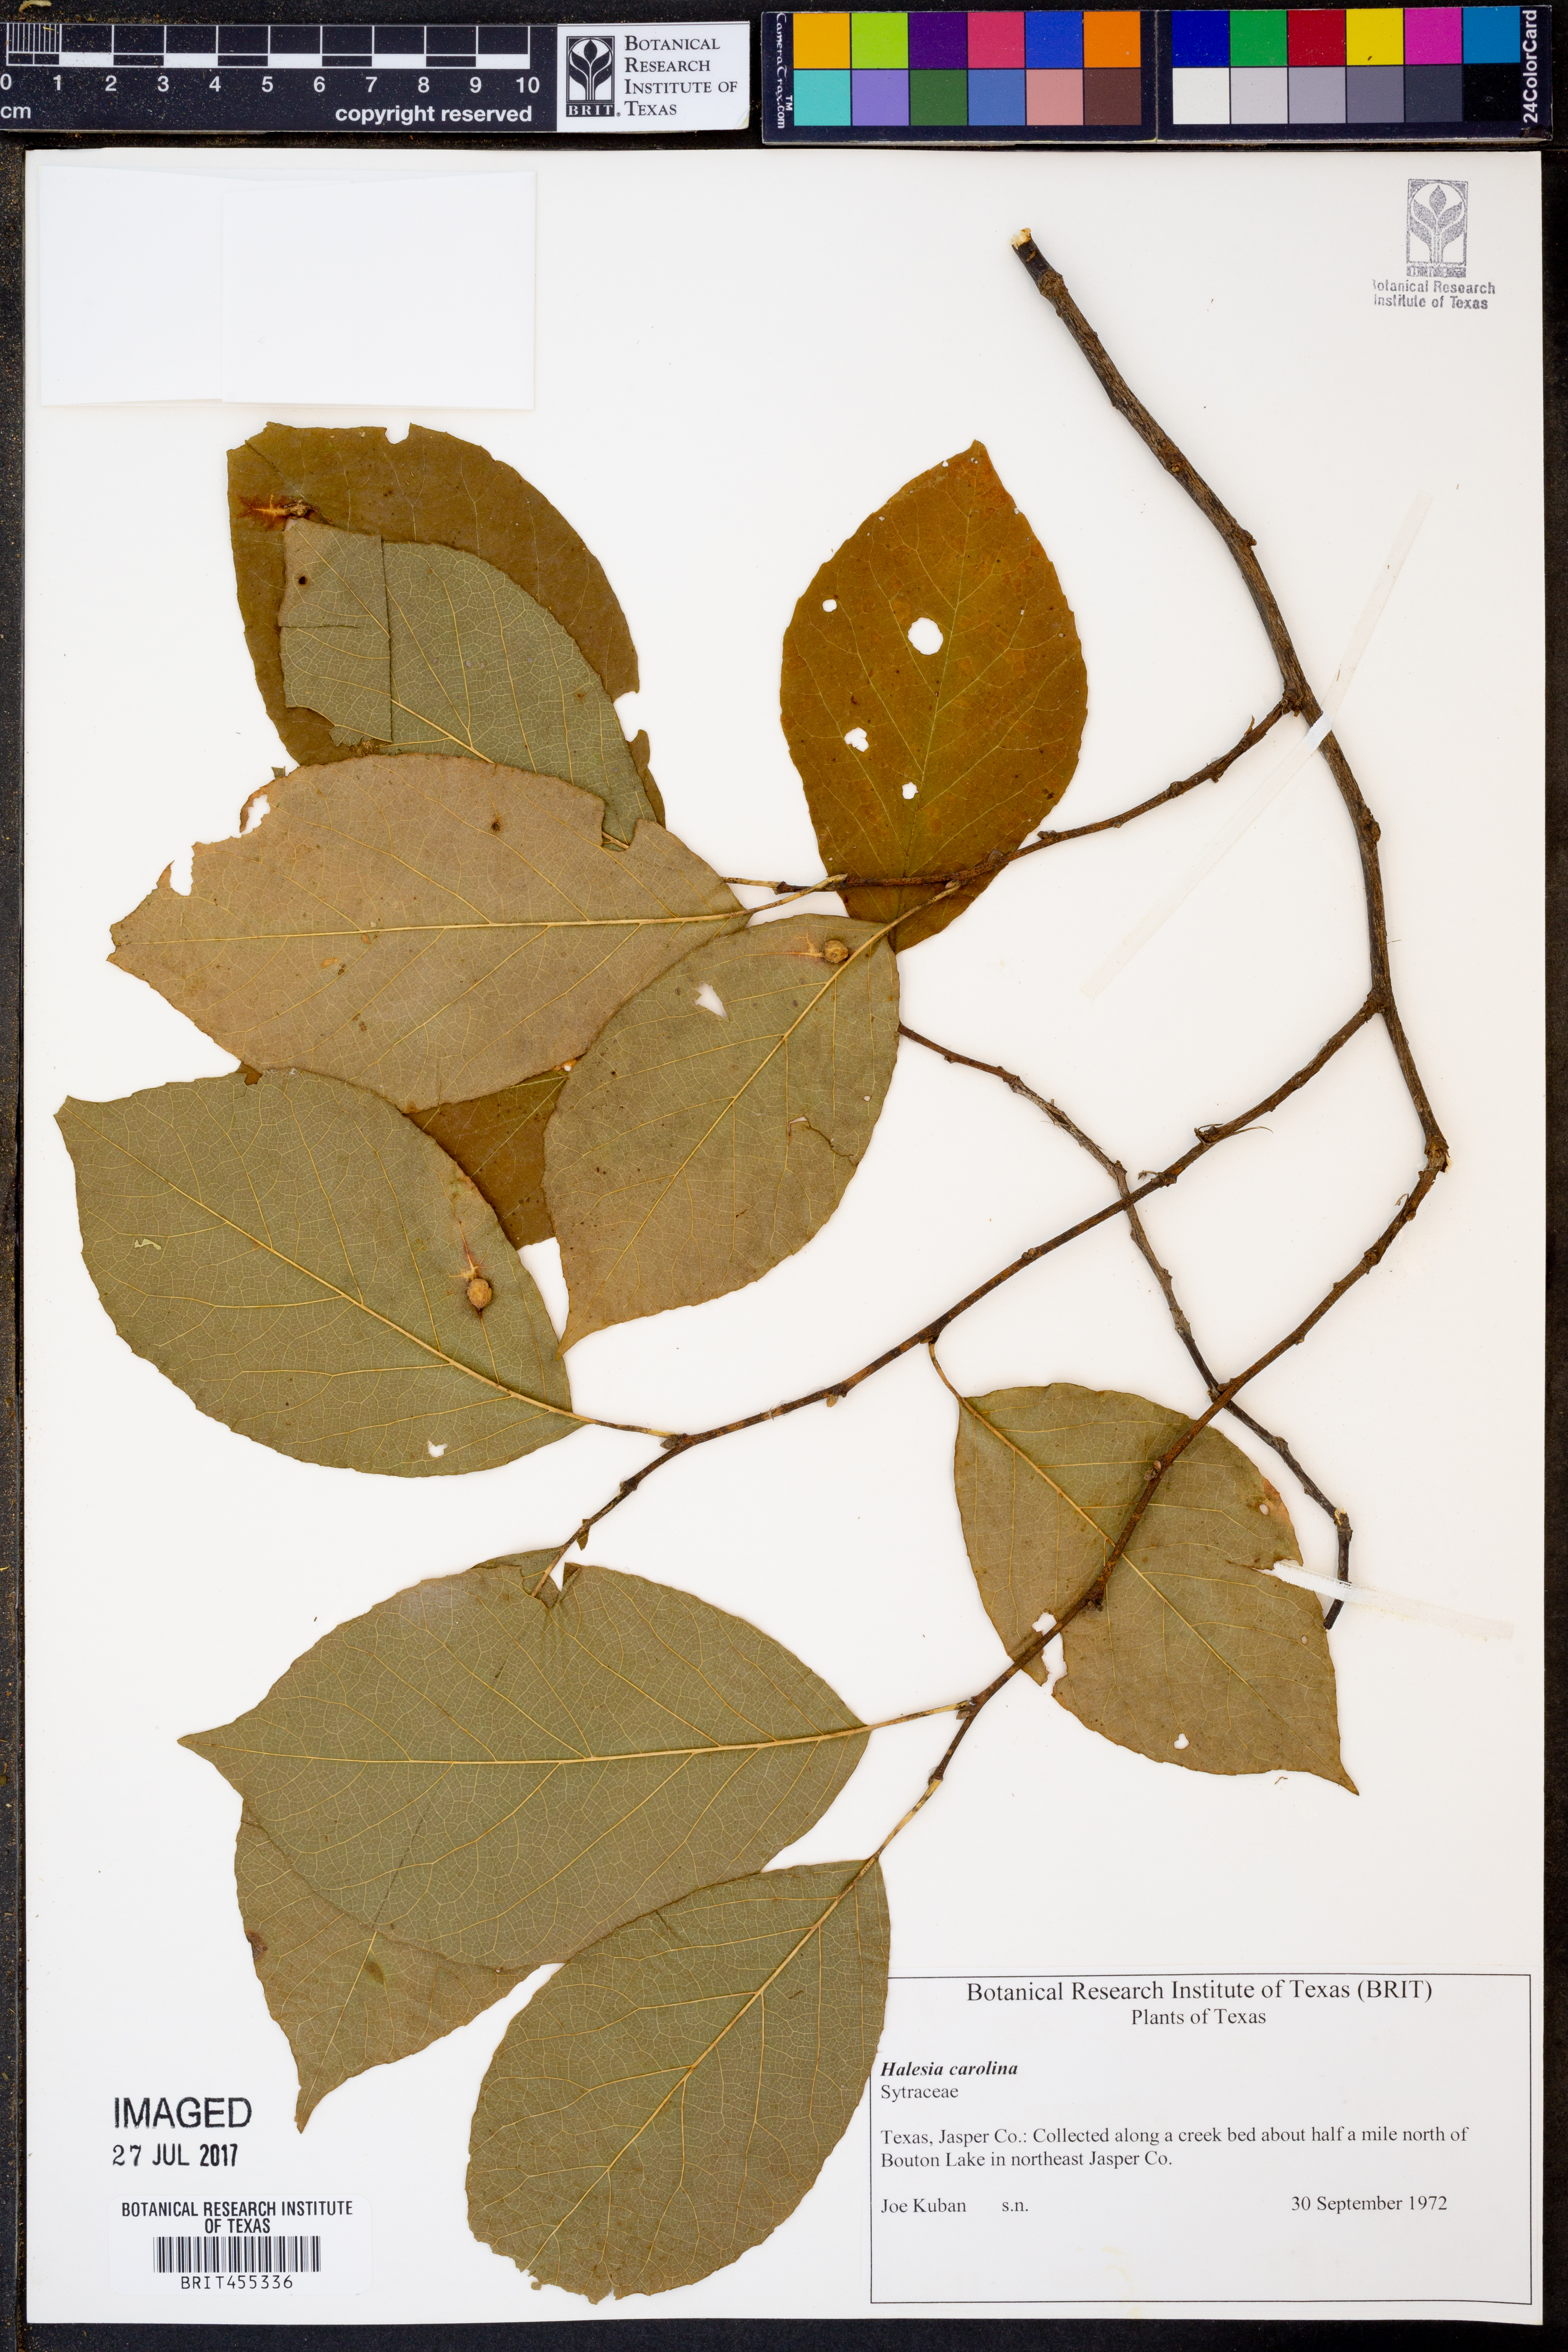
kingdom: Plantae
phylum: Tracheophyta
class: Magnoliopsida
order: Ericales
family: Styracaceae
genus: Halesia
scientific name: Halesia carolina
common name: Carolina silverbell
